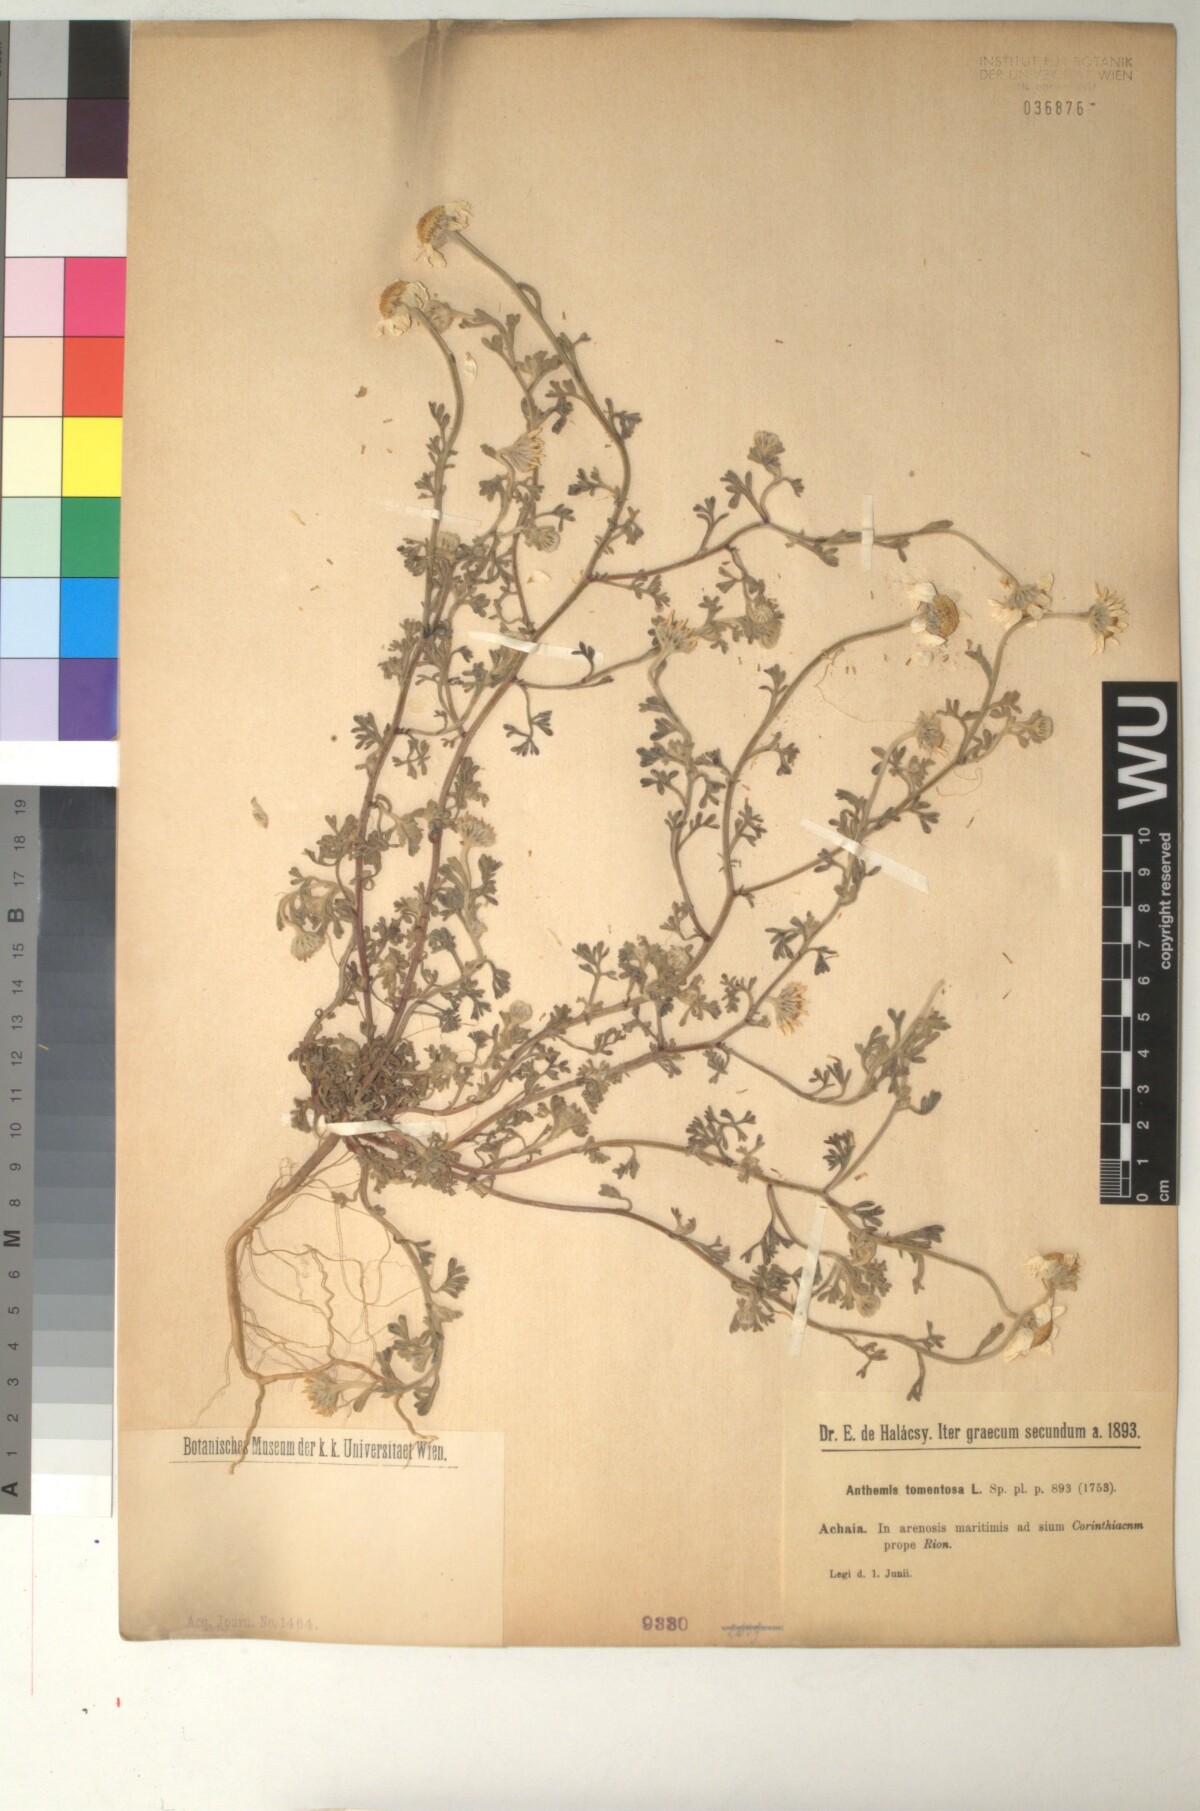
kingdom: Plantae
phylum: Tracheophyta
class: Magnoliopsida
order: Asterales
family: Asteraceae
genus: Anthemis
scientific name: Anthemis tomentosa
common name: Woolly chamomile
